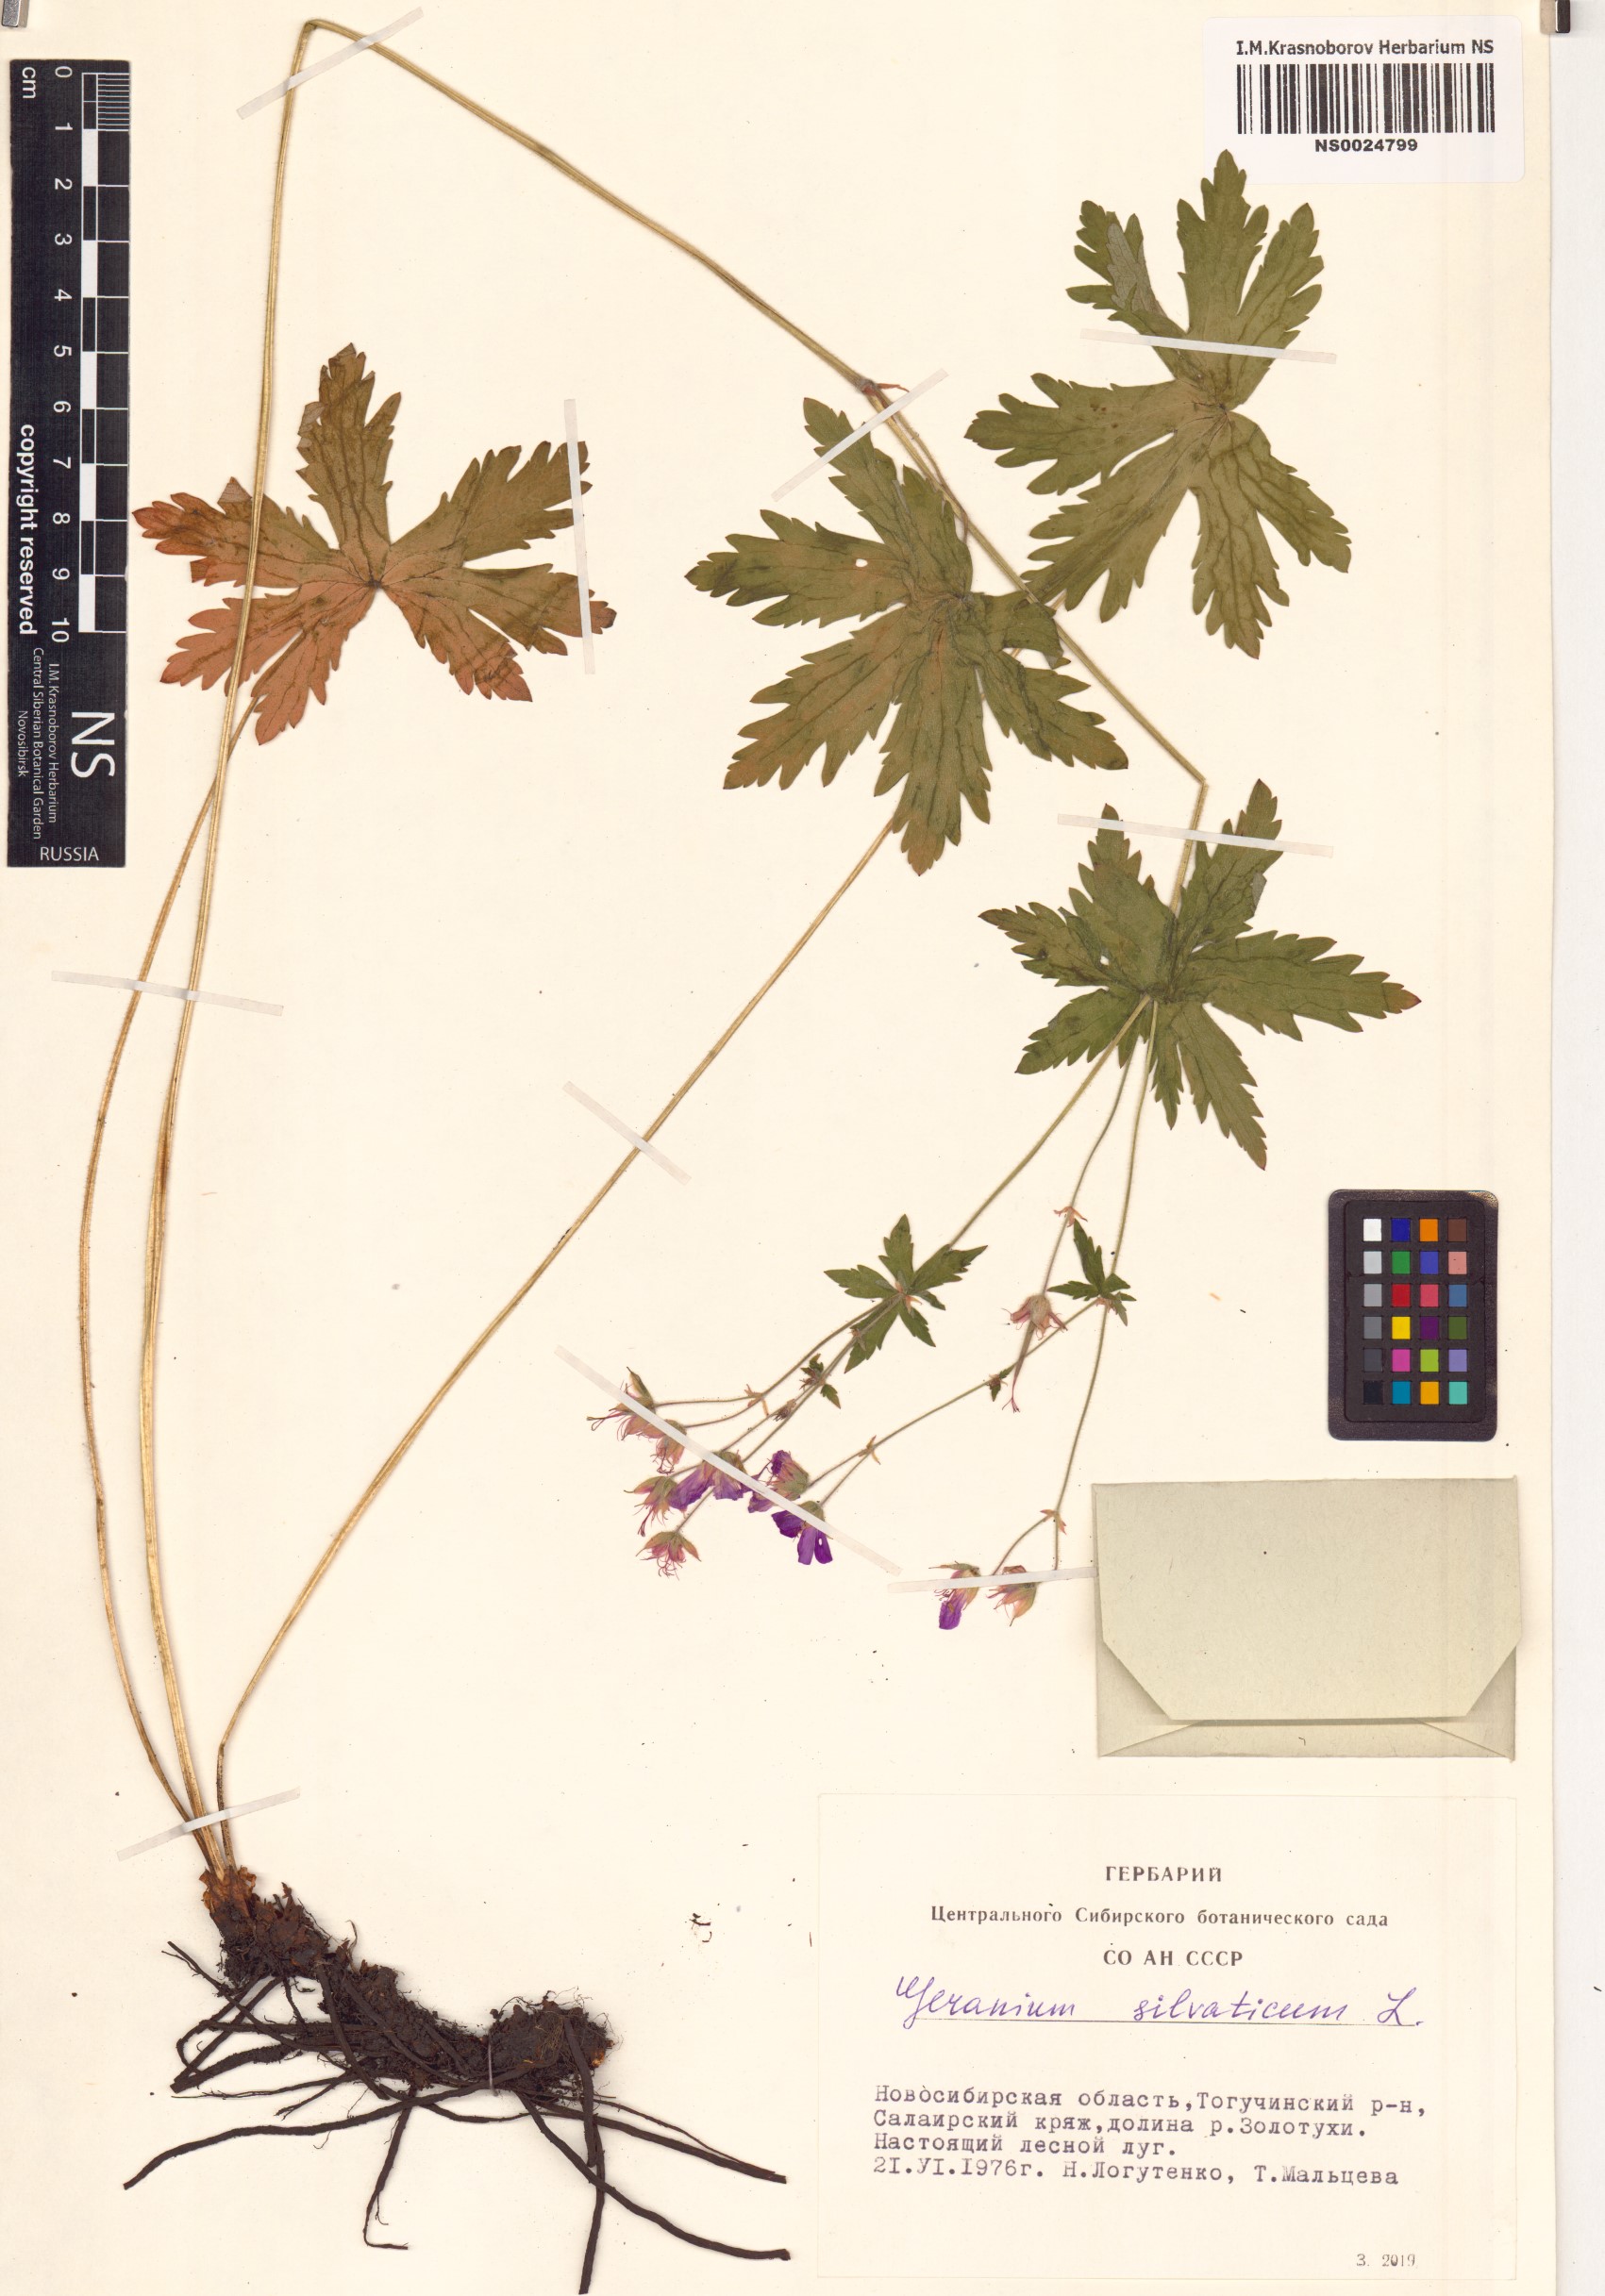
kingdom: Plantae
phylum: Tracheophyta
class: Magnoliopsida
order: Geraniales
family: Geraniaceae
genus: Geranium
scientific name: Geranium sylvaticum
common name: Wood crane's-bill
